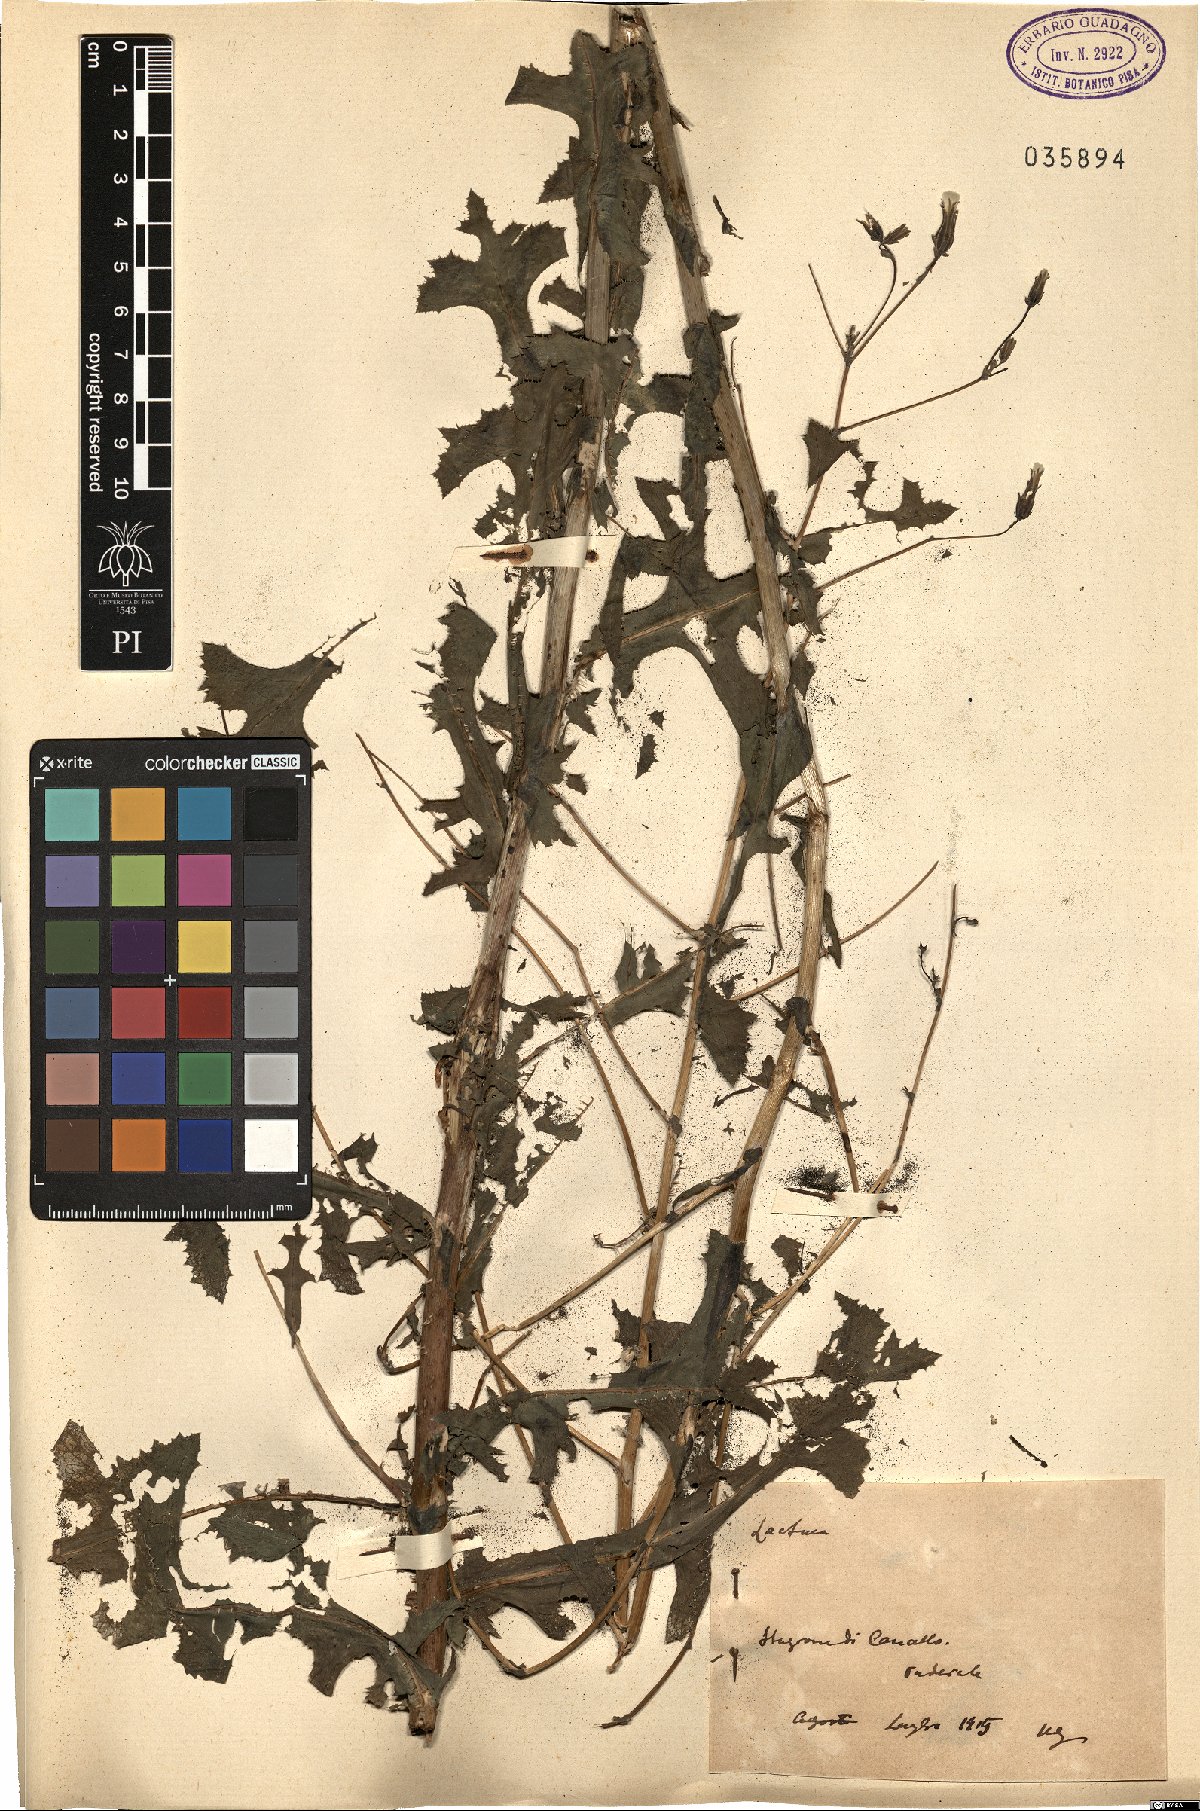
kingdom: Plantae
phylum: Tracheophyta
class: Magnoliopsida
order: Asterales
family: Asteraceae
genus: Lactuca
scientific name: Lactuca
